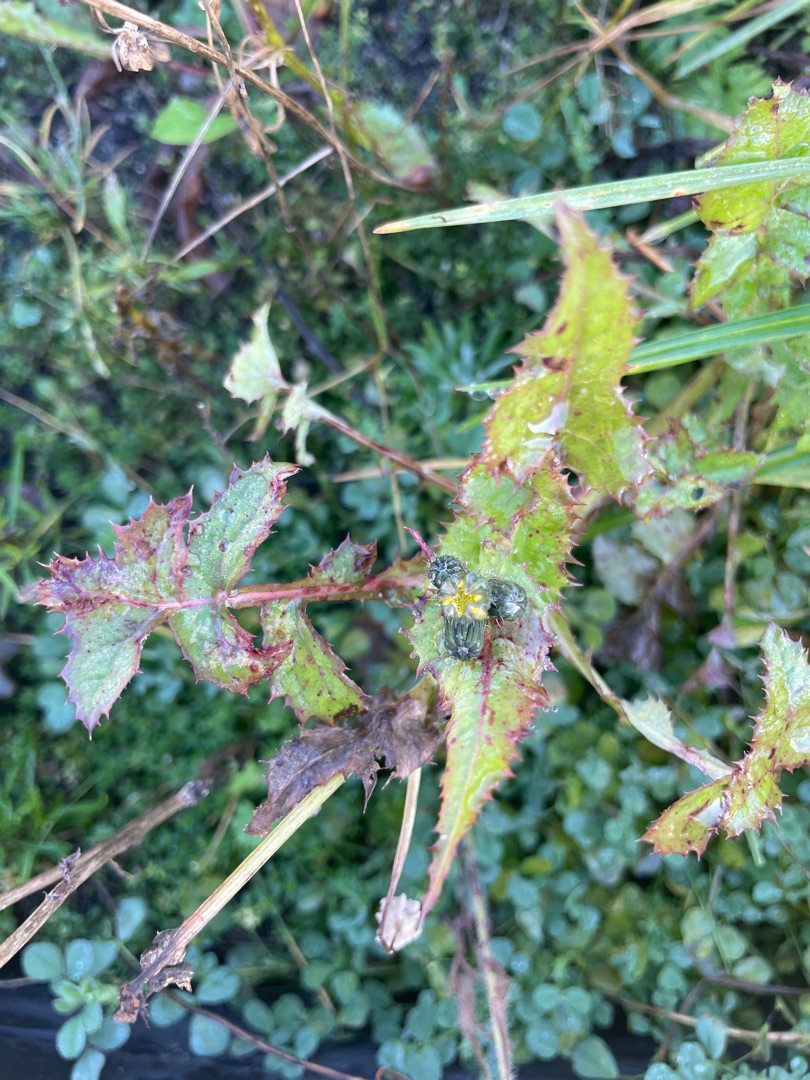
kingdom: Plantae
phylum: Tracheophyta
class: Magnoliopsida
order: Asterales
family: Asteraceae
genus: Sonchus
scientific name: Sonchus
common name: Svinemælkslægten
